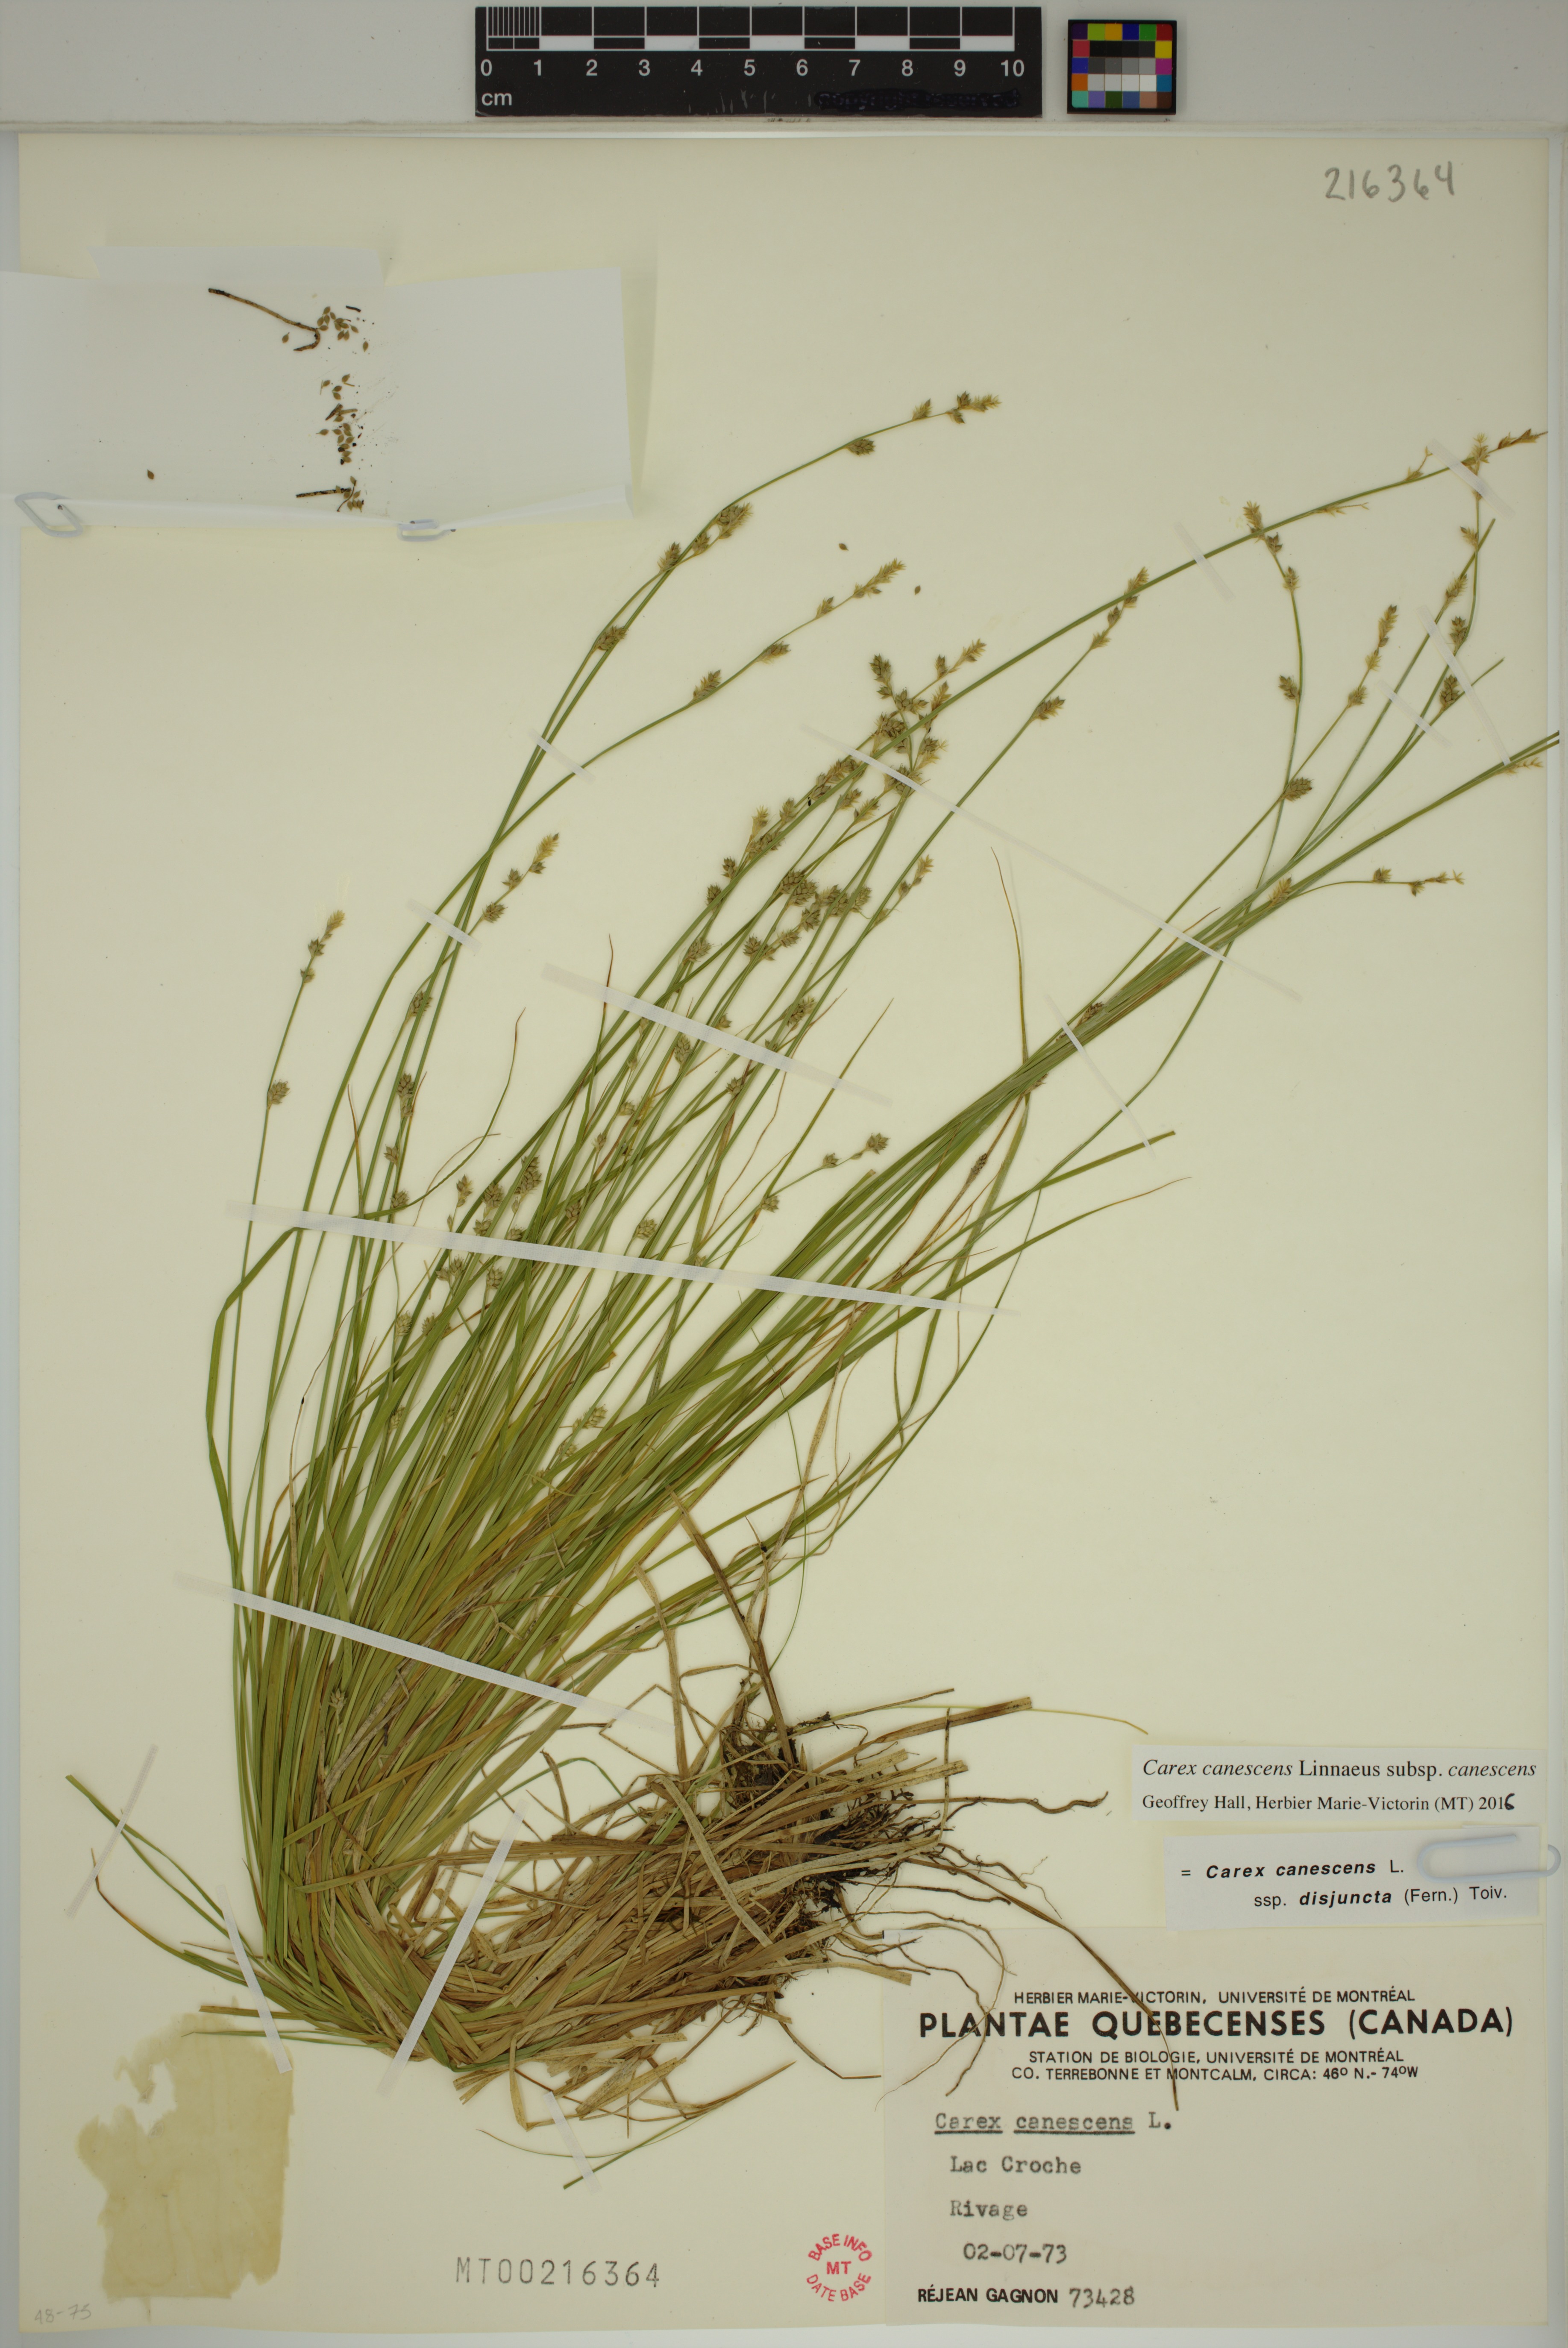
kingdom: Plantae
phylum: Tracheophyta
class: Liliopsida
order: Poales
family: Cyperaceae
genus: Carex
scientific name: Carex canescens
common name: White sedge
